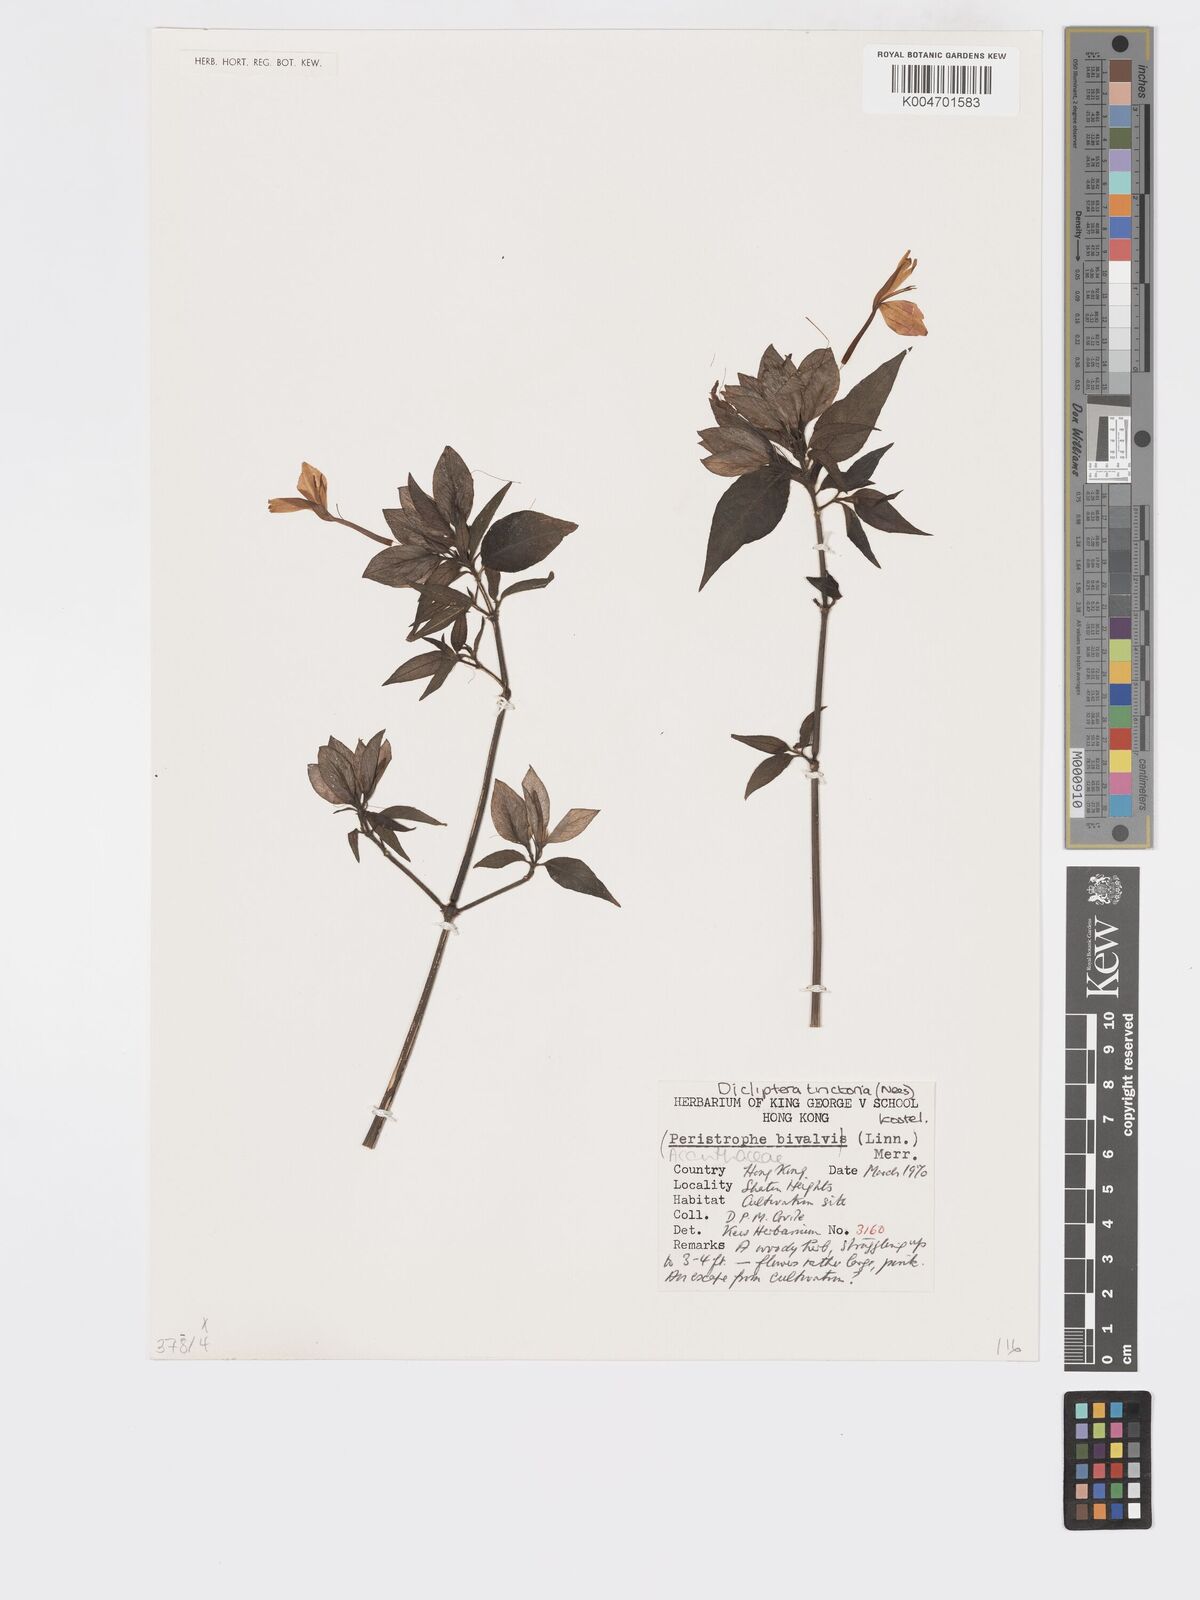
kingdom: Plantae
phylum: Tracheophyta
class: Magnoliopsida
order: Lamiales
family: Acanthaceae
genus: Dicliptera
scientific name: Dicliptera tinctoria
